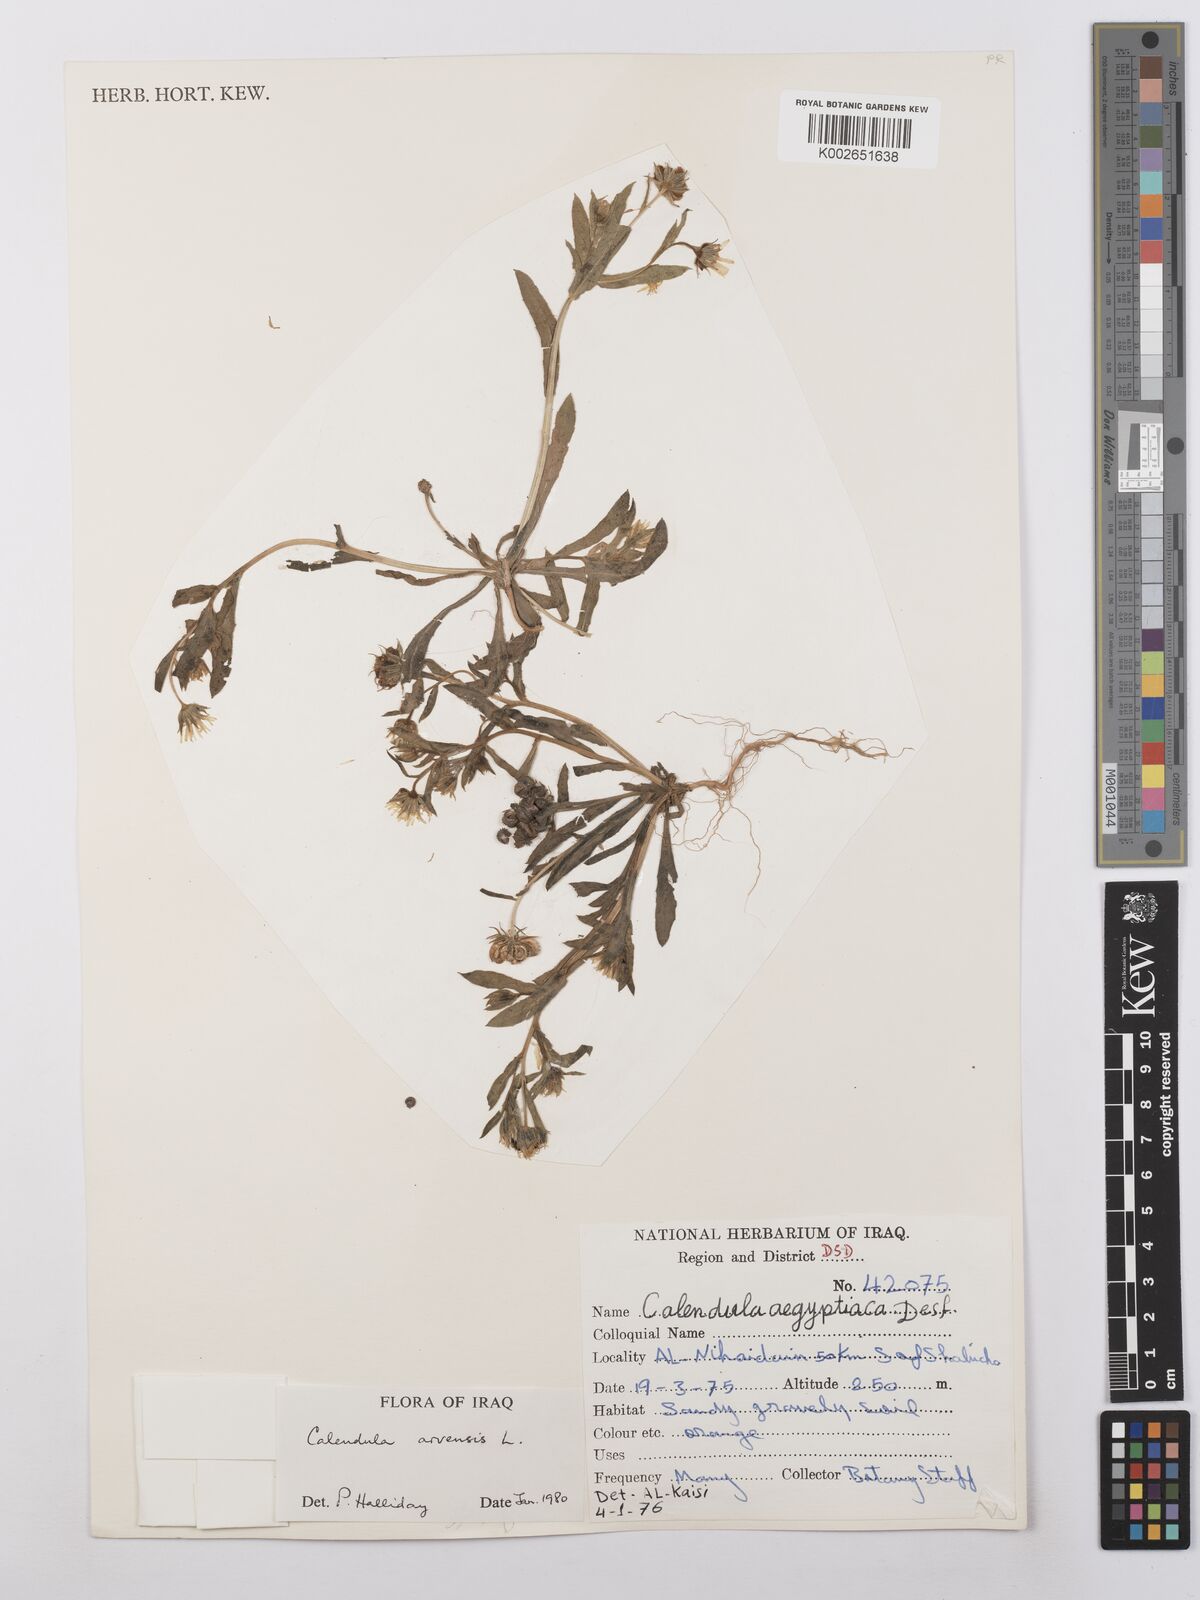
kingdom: Plantae
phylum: Tracheophyta
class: Magnoliopsida
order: Asterales
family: Asteraceae
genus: Calendula
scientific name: Calendula arvensis
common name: Field marigold
